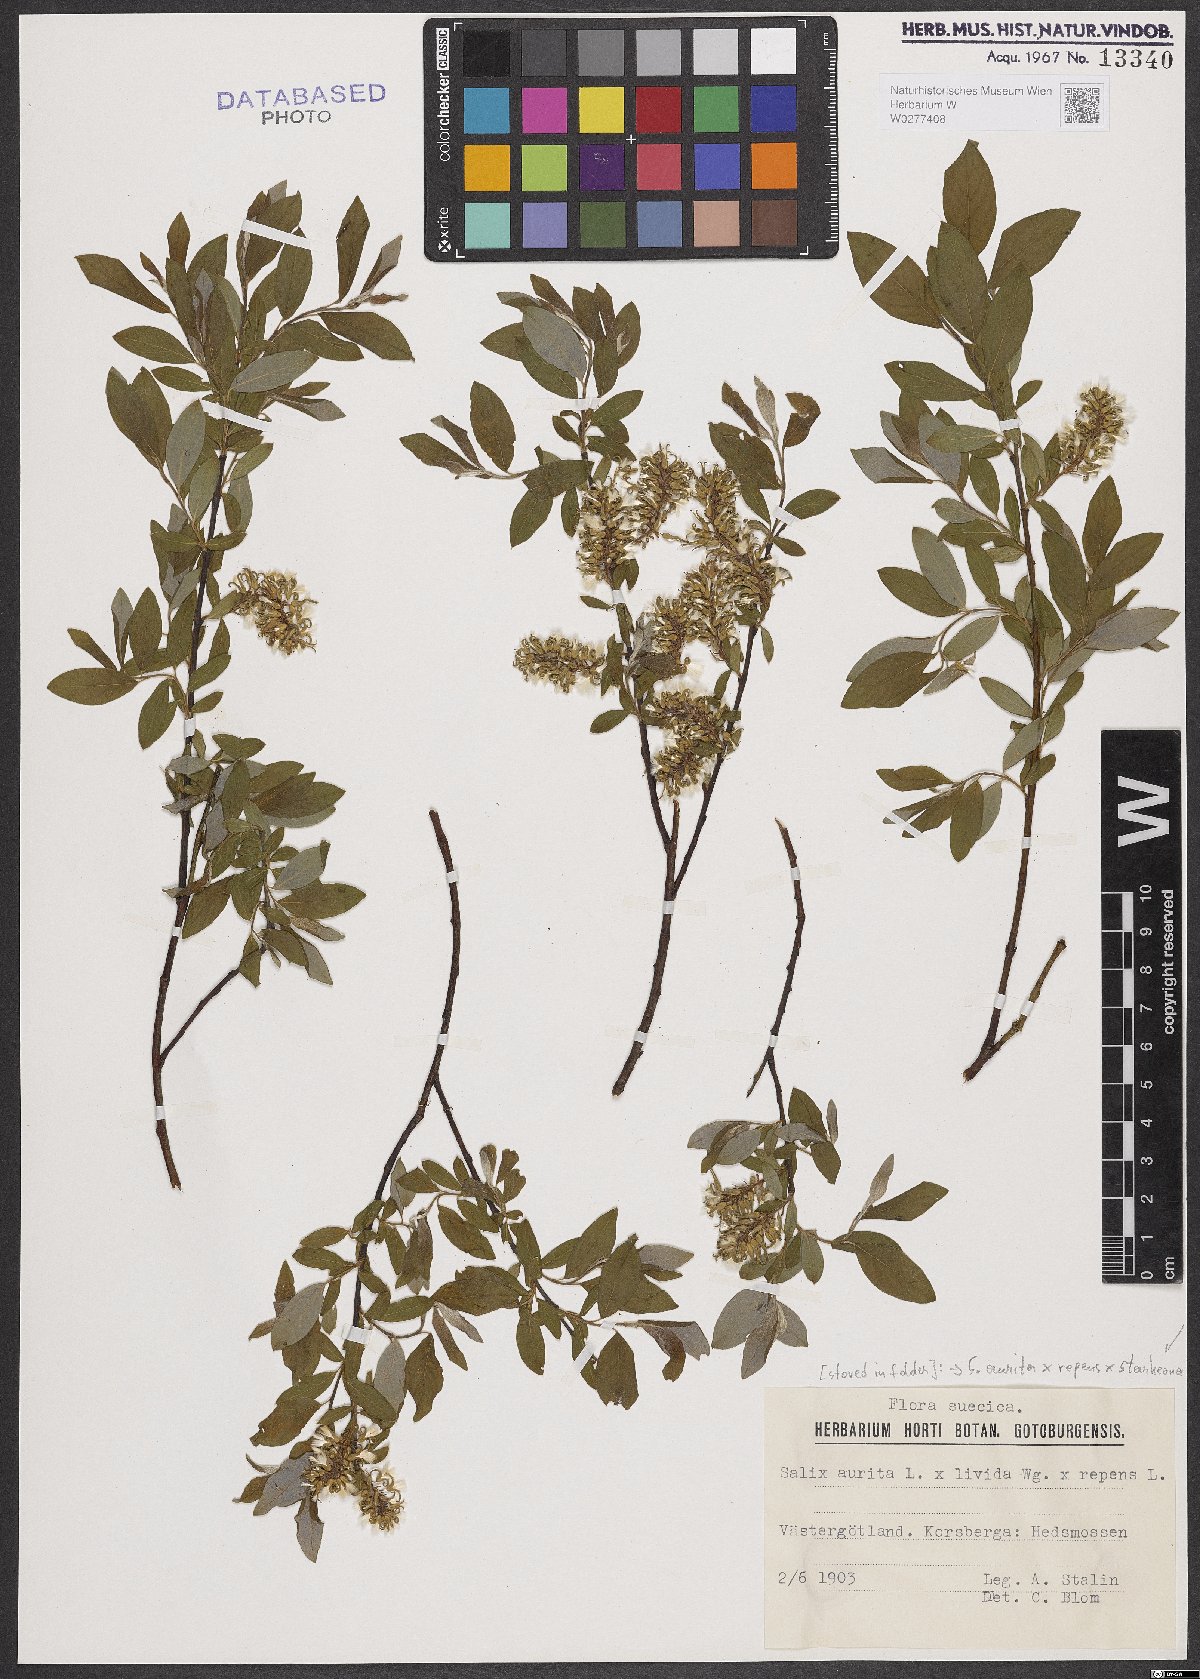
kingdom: Plantae
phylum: Tracheophyta
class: Magnoliopsida
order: Malpighiales
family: Salicaceae
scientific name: Salicaceae
